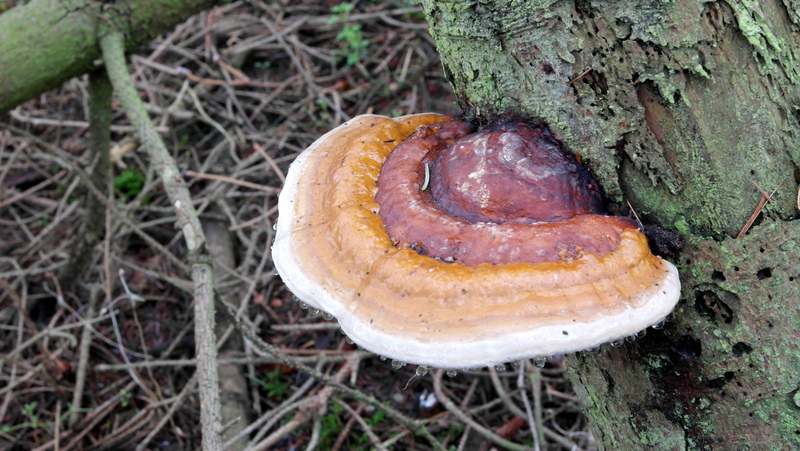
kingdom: Fungi
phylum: Basidiomycota
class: Agaricomycetes
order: Polyporales
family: Fomitopsidaceae
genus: Fomitopsis
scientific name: Fomitopsis pinicola
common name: randbæltet hovporesvamp
